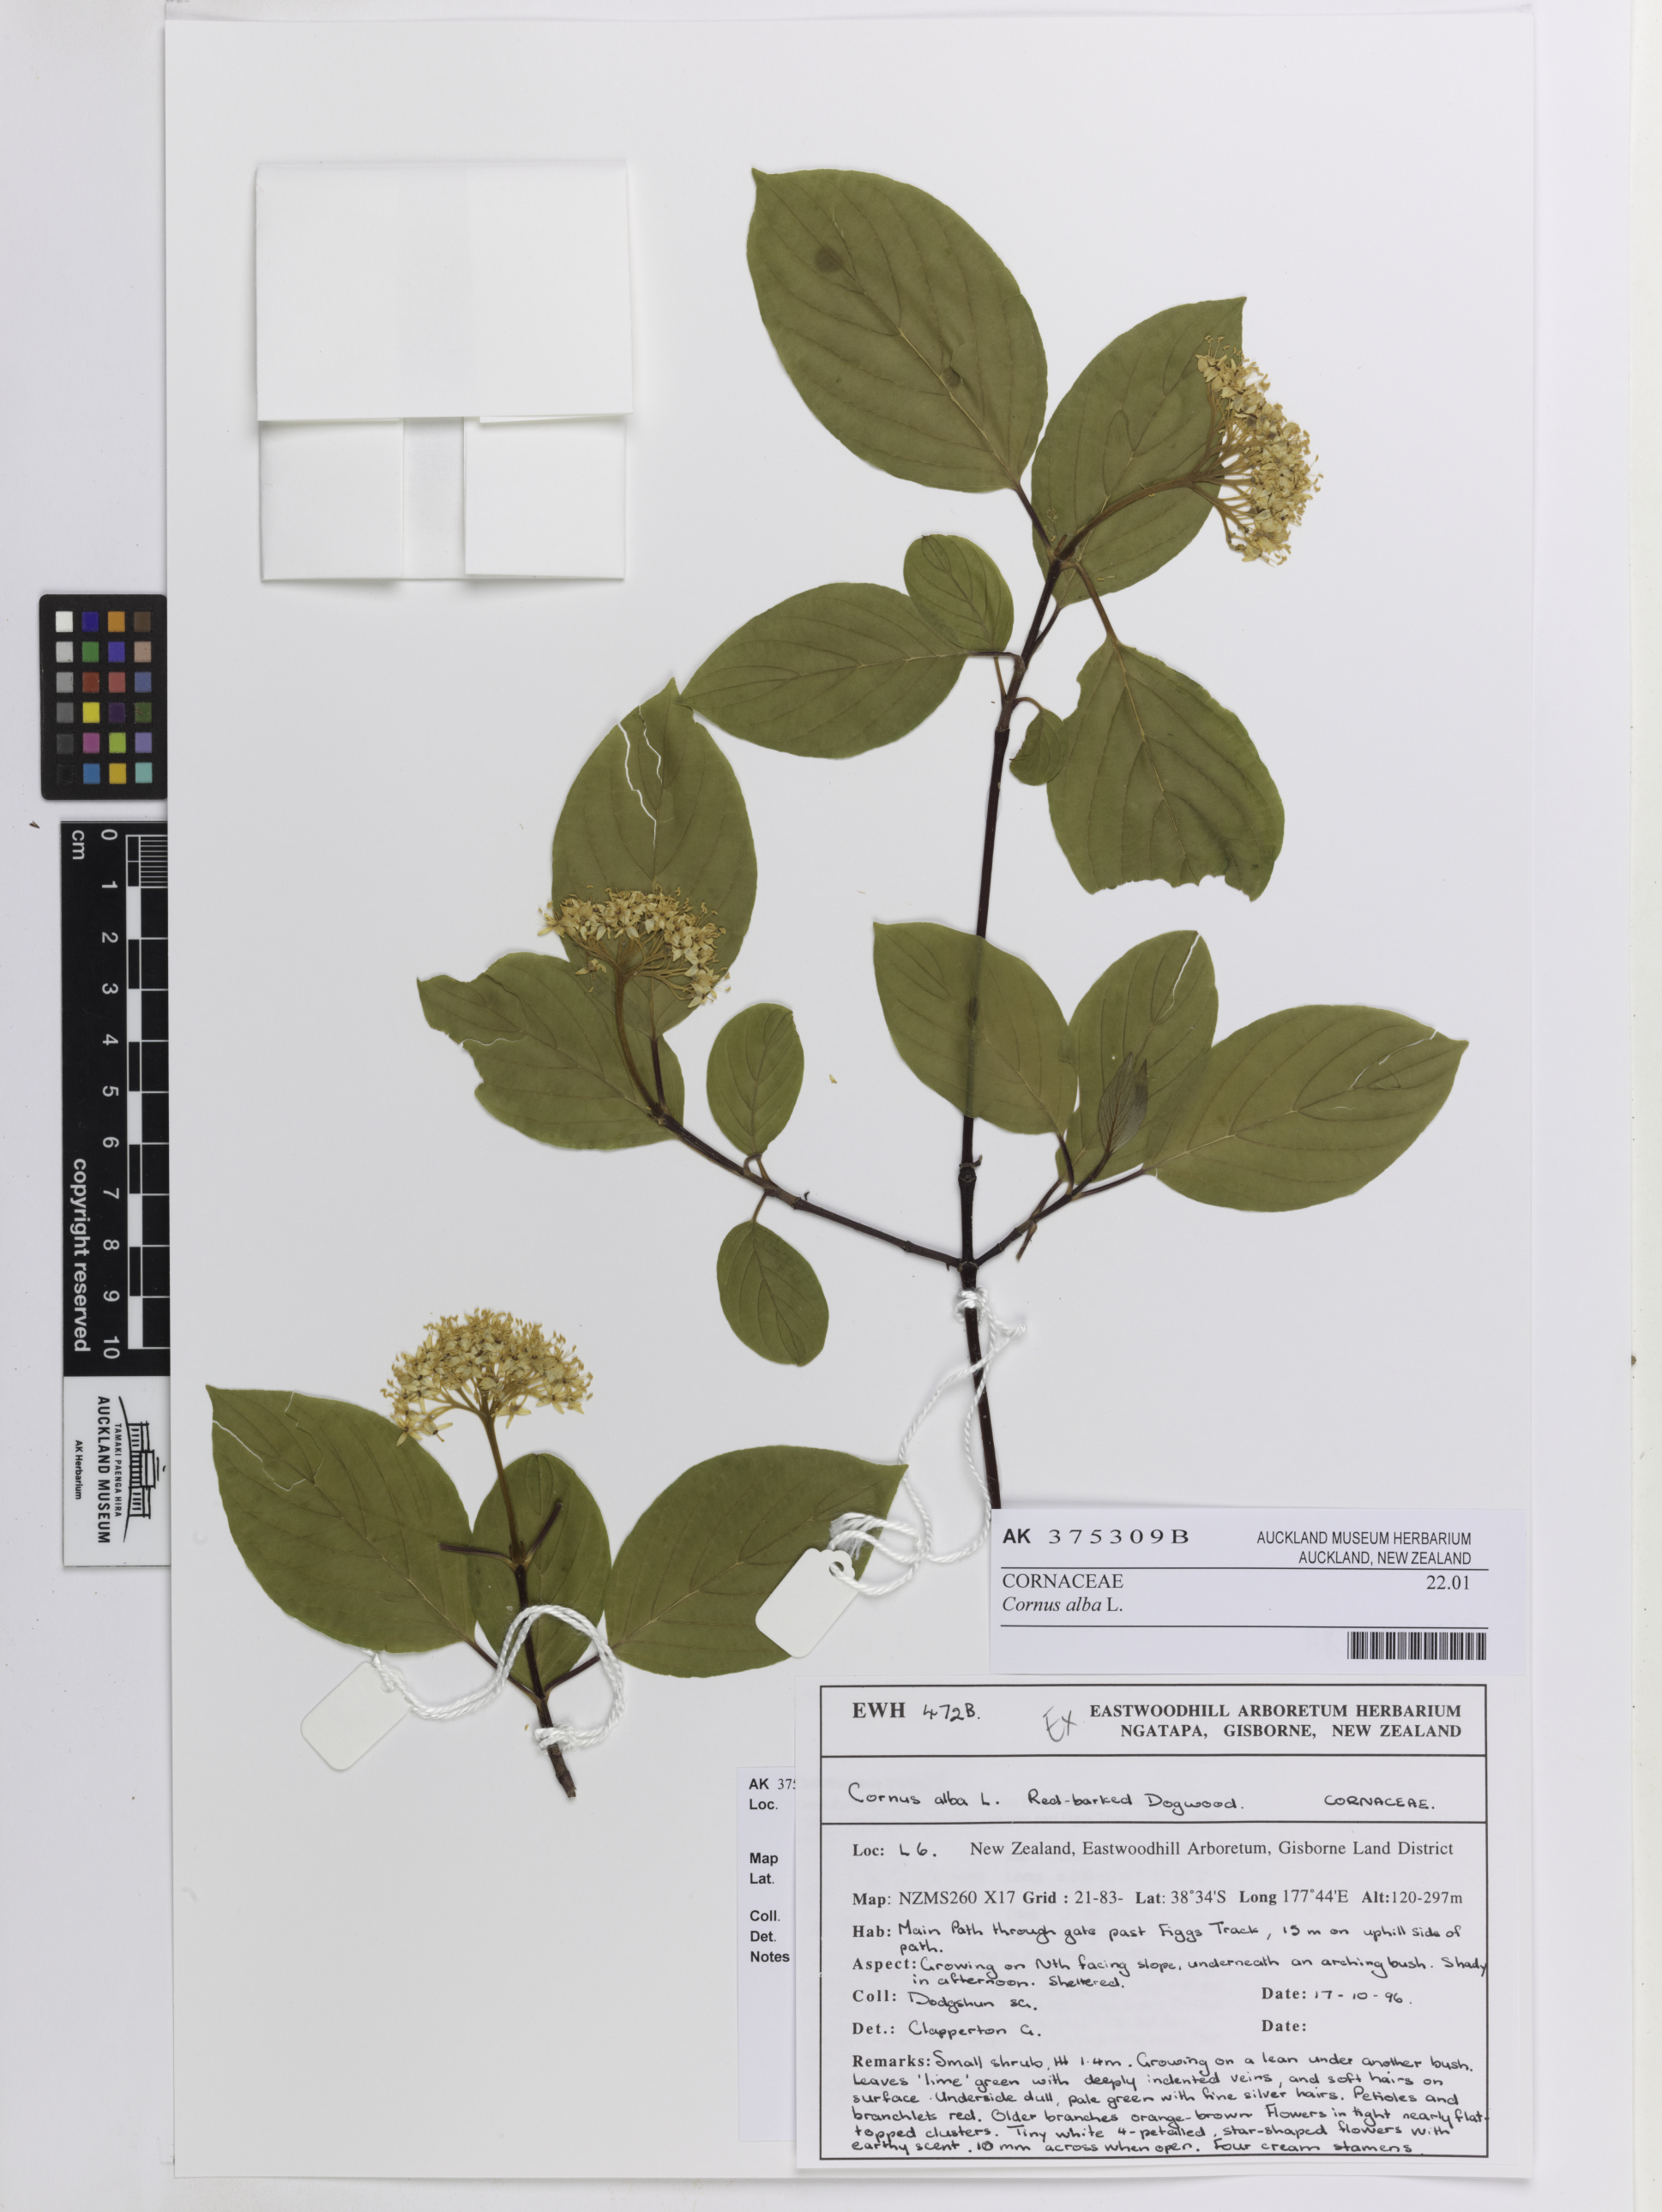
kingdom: Plantae
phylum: Tracheophyta
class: Magnoliopsida
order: Cornales
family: Cornaceae
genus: Cornus
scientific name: Cornus alba
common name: White dogwood
